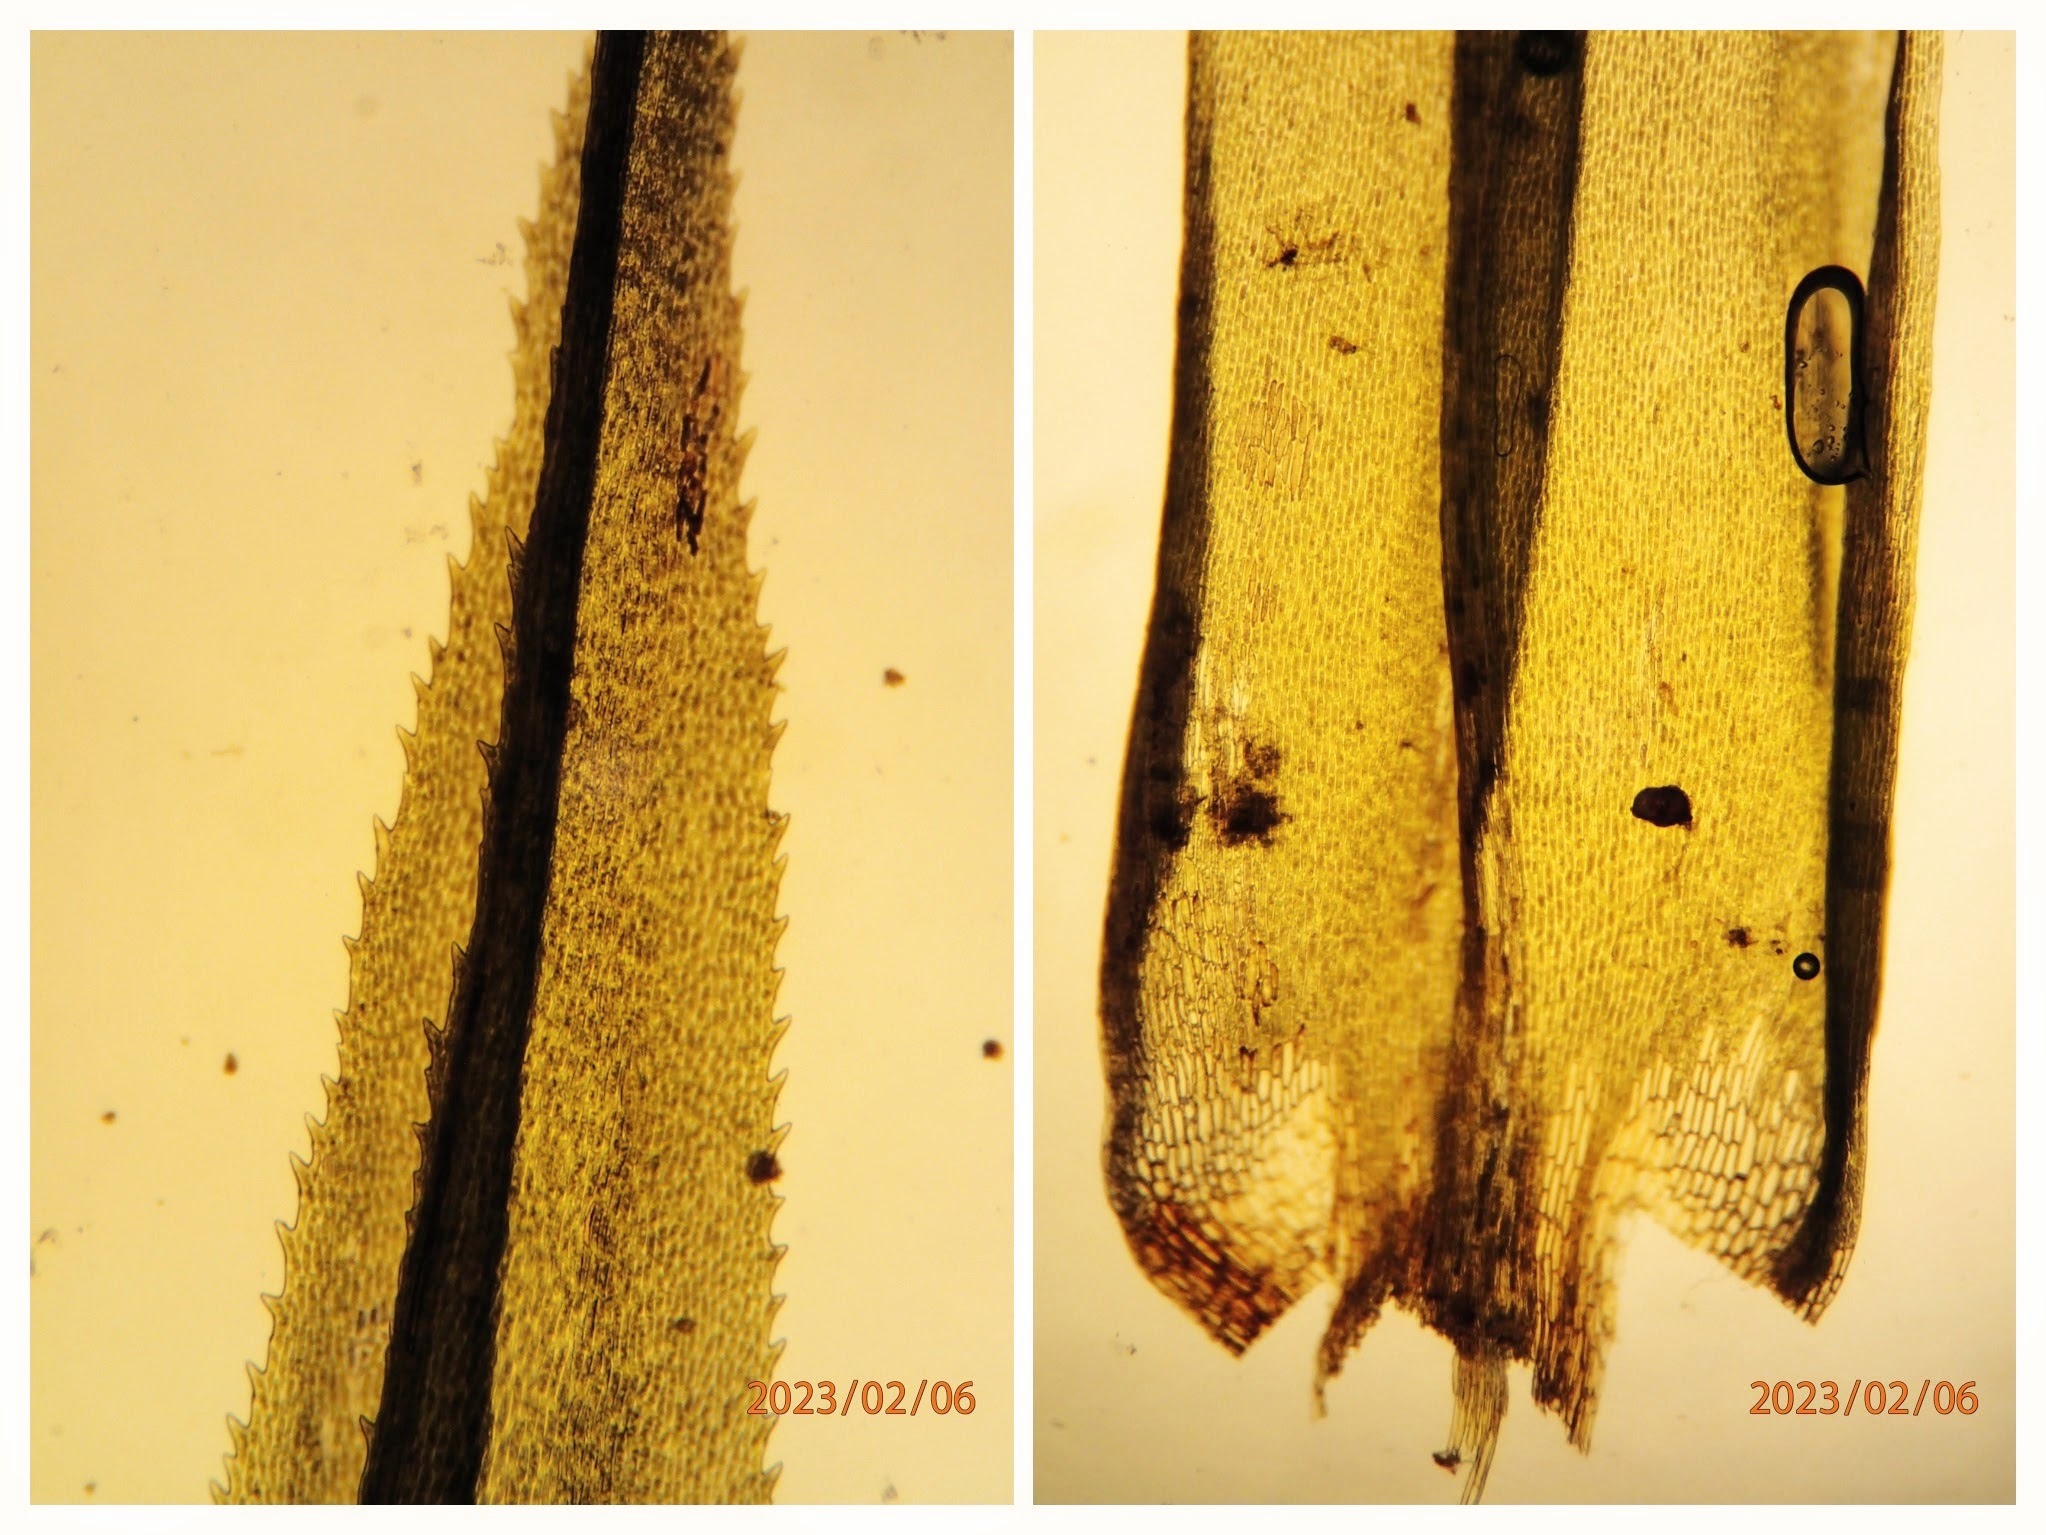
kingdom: Plantae
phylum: Bryophyta
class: Bryopsida
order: Dicranales
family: Dicranaceae
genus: Dicranum
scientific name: Dicranum polysetum
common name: Bølgebladet kløvtand
